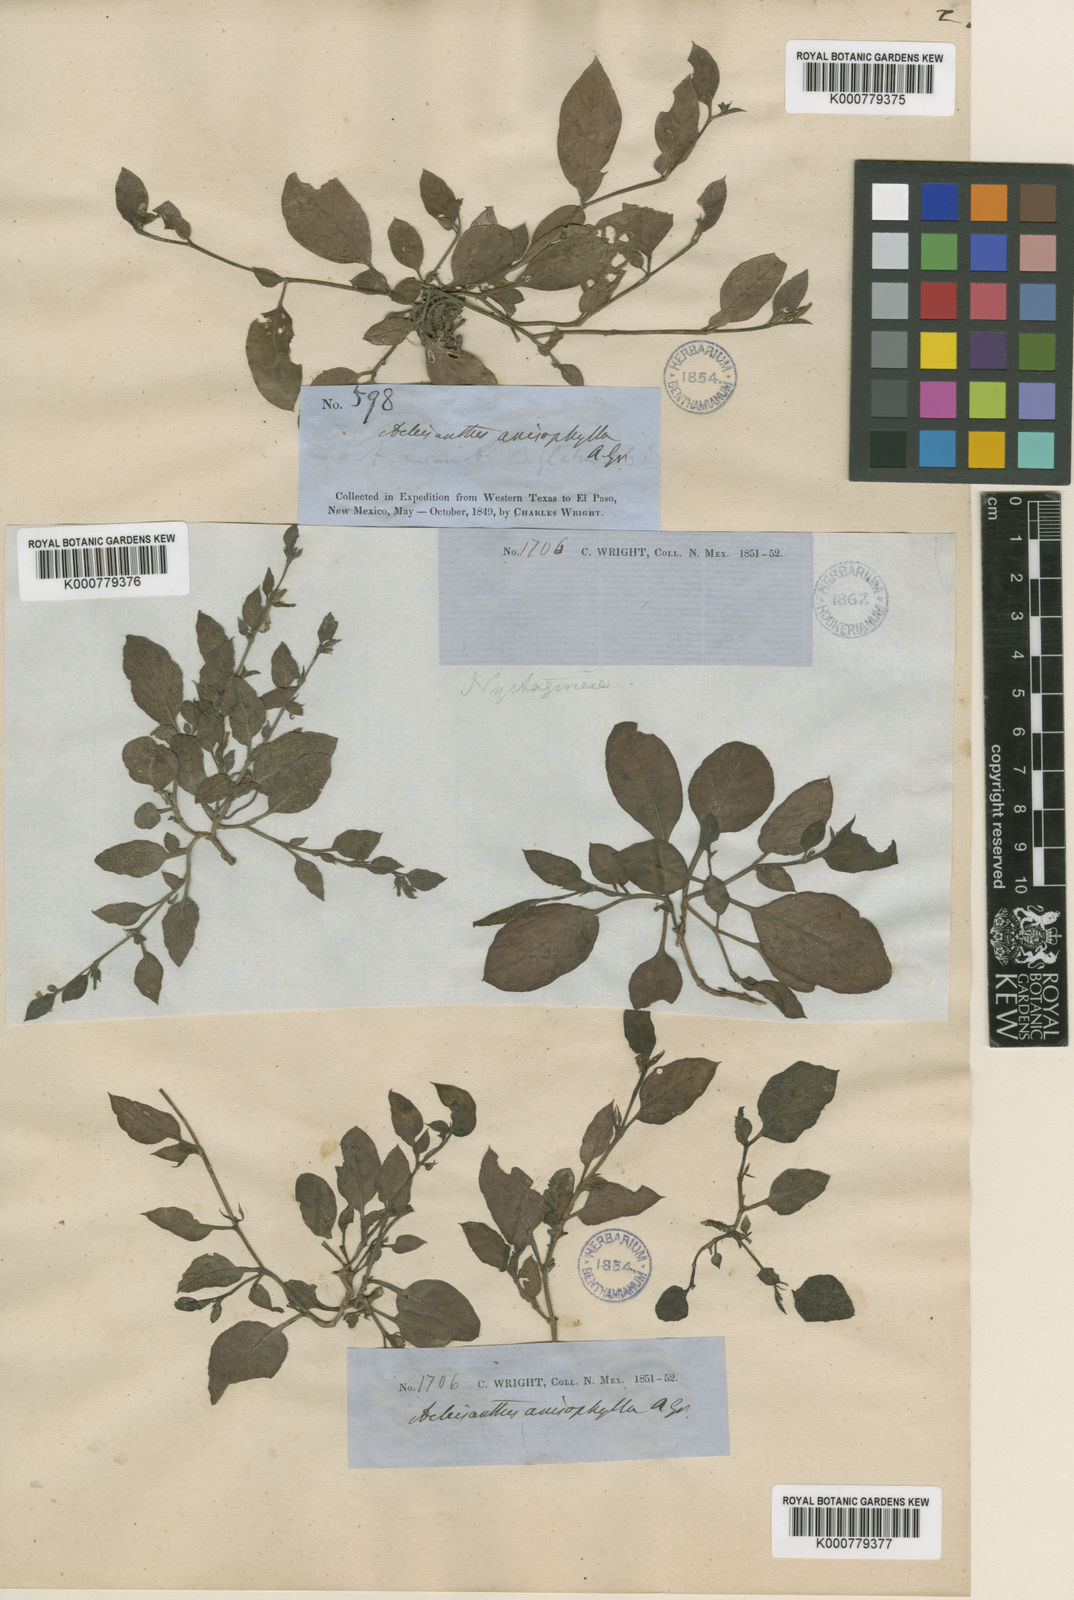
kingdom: Plantae
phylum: Tracheophyta
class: Magnoliopsida
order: Caryophyllales
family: Nyctaginaceae
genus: Acleisanthes
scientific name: Acleisanthes anisophylla
